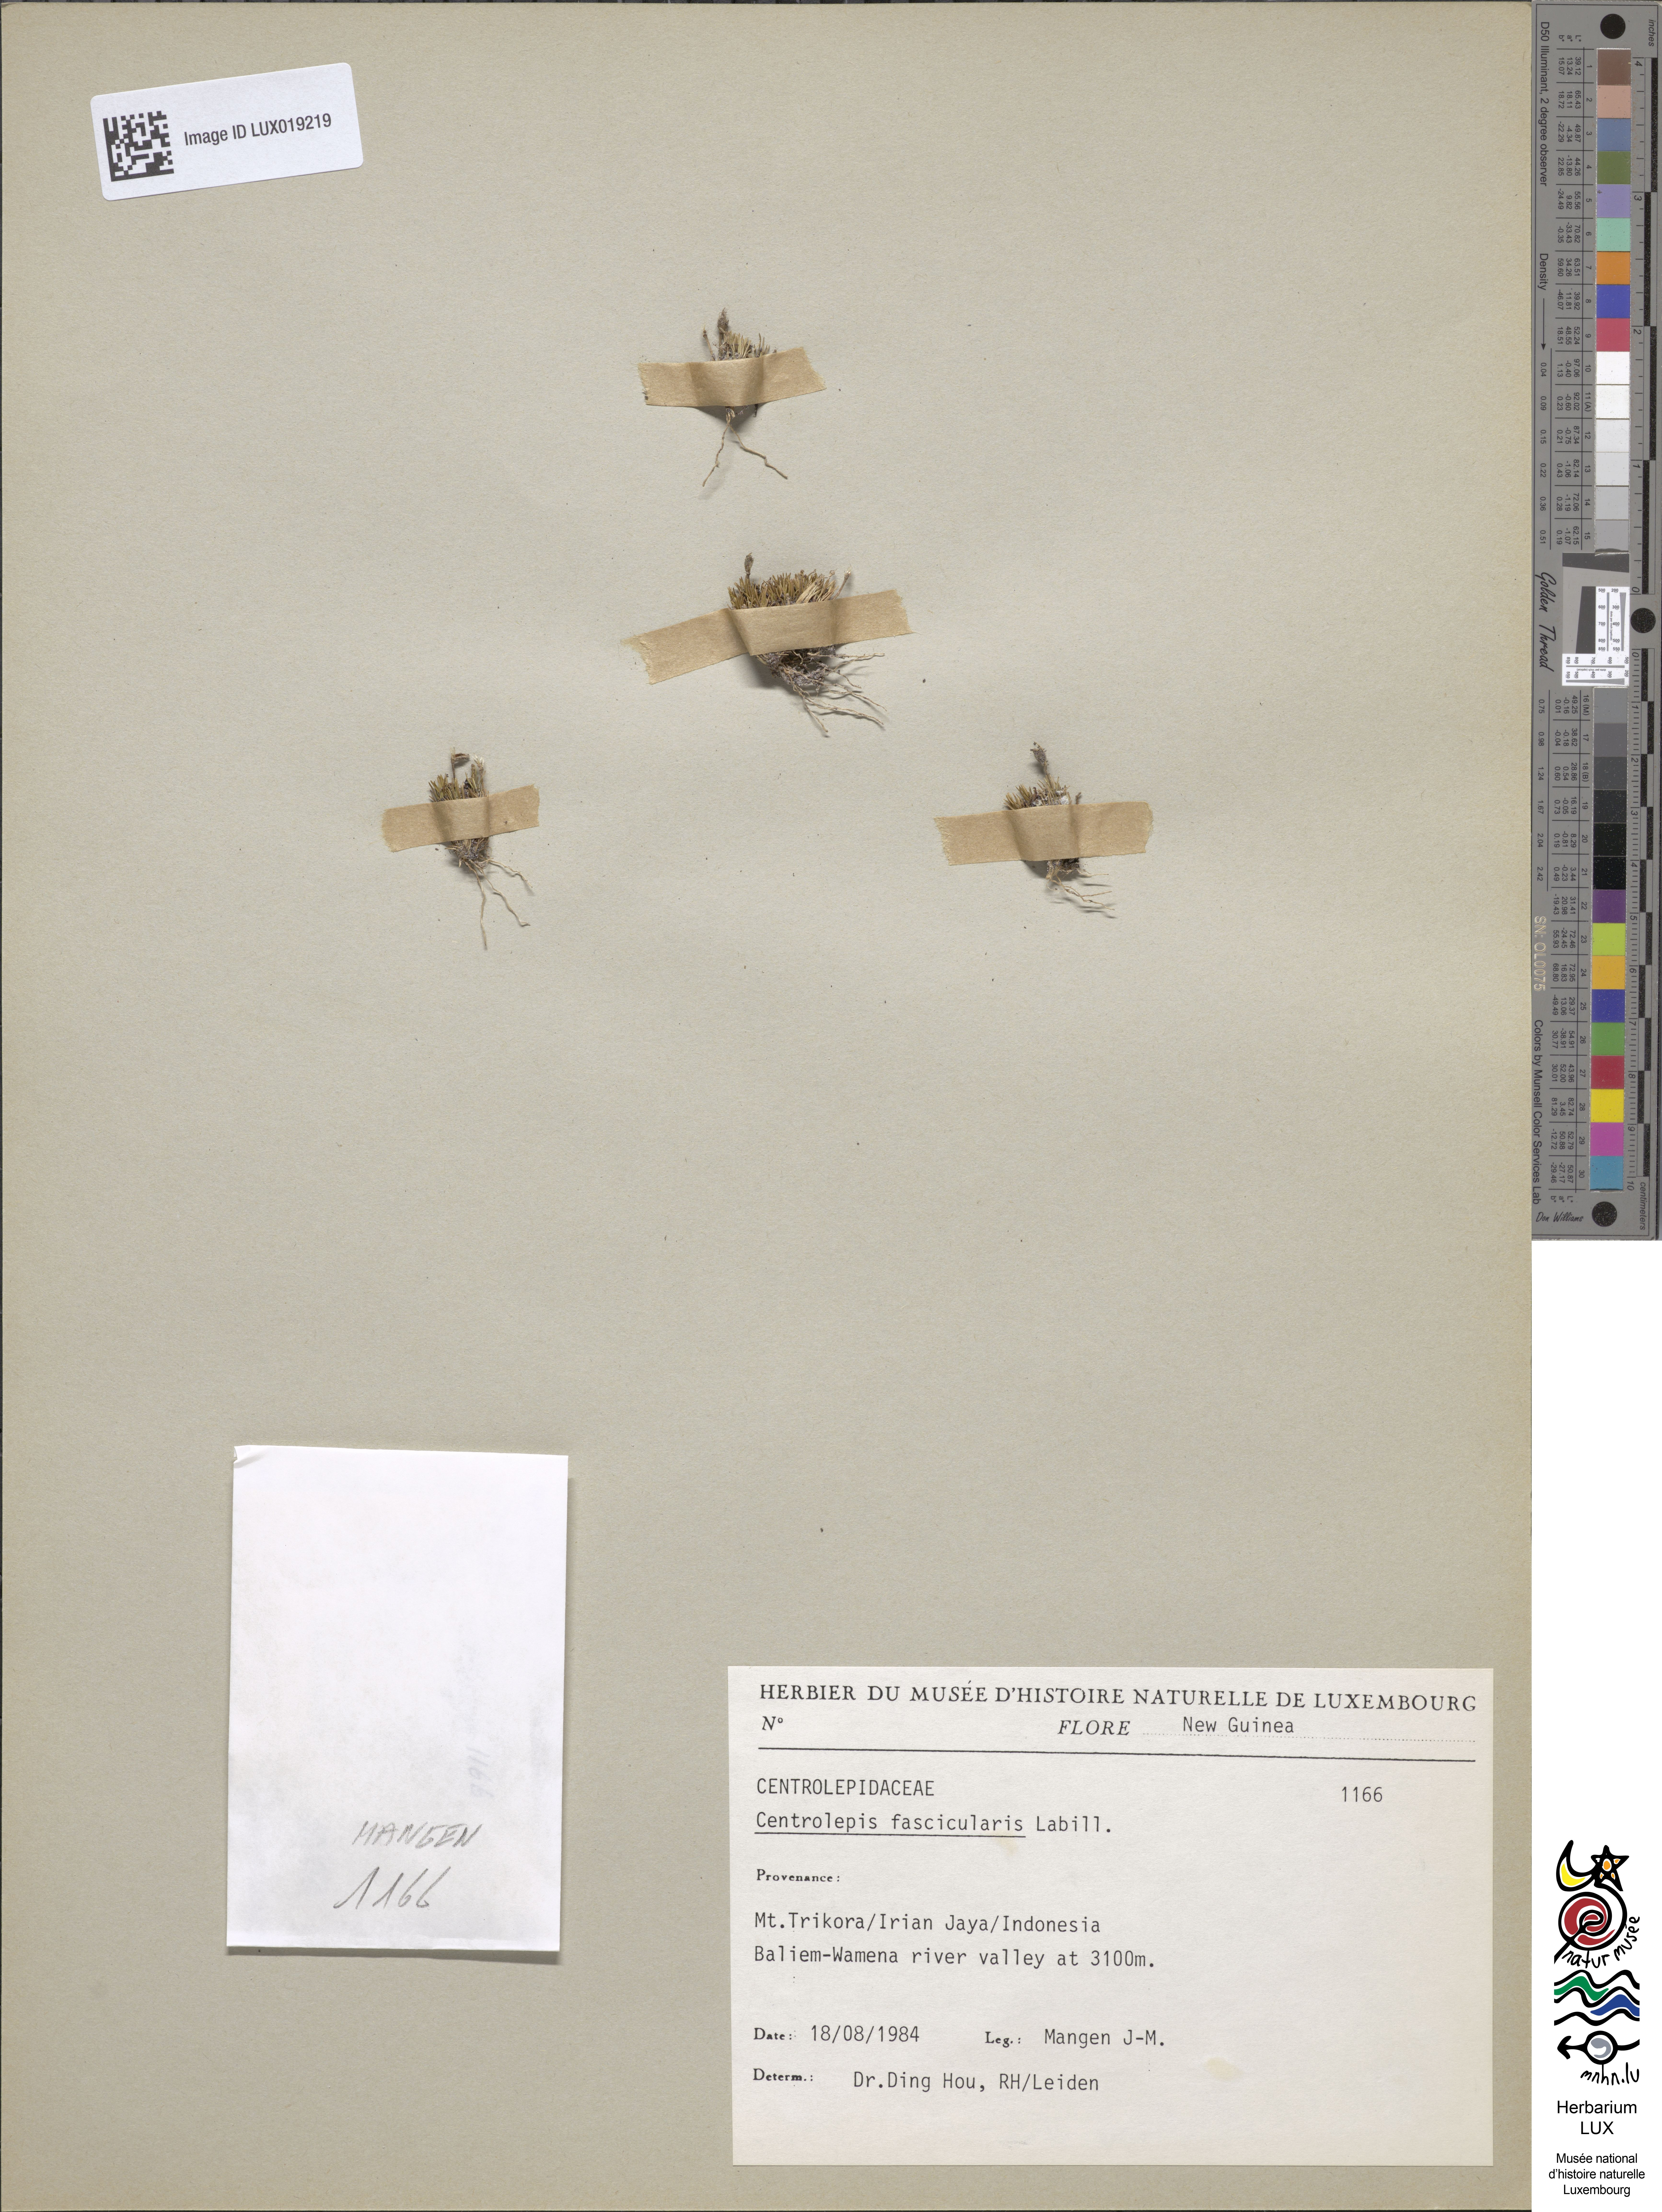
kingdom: Plantae
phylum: Tracheophyta
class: Liliopsida
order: Poales
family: Restionaceae
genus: Centrolepis
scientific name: Centrolepis fascicularis
